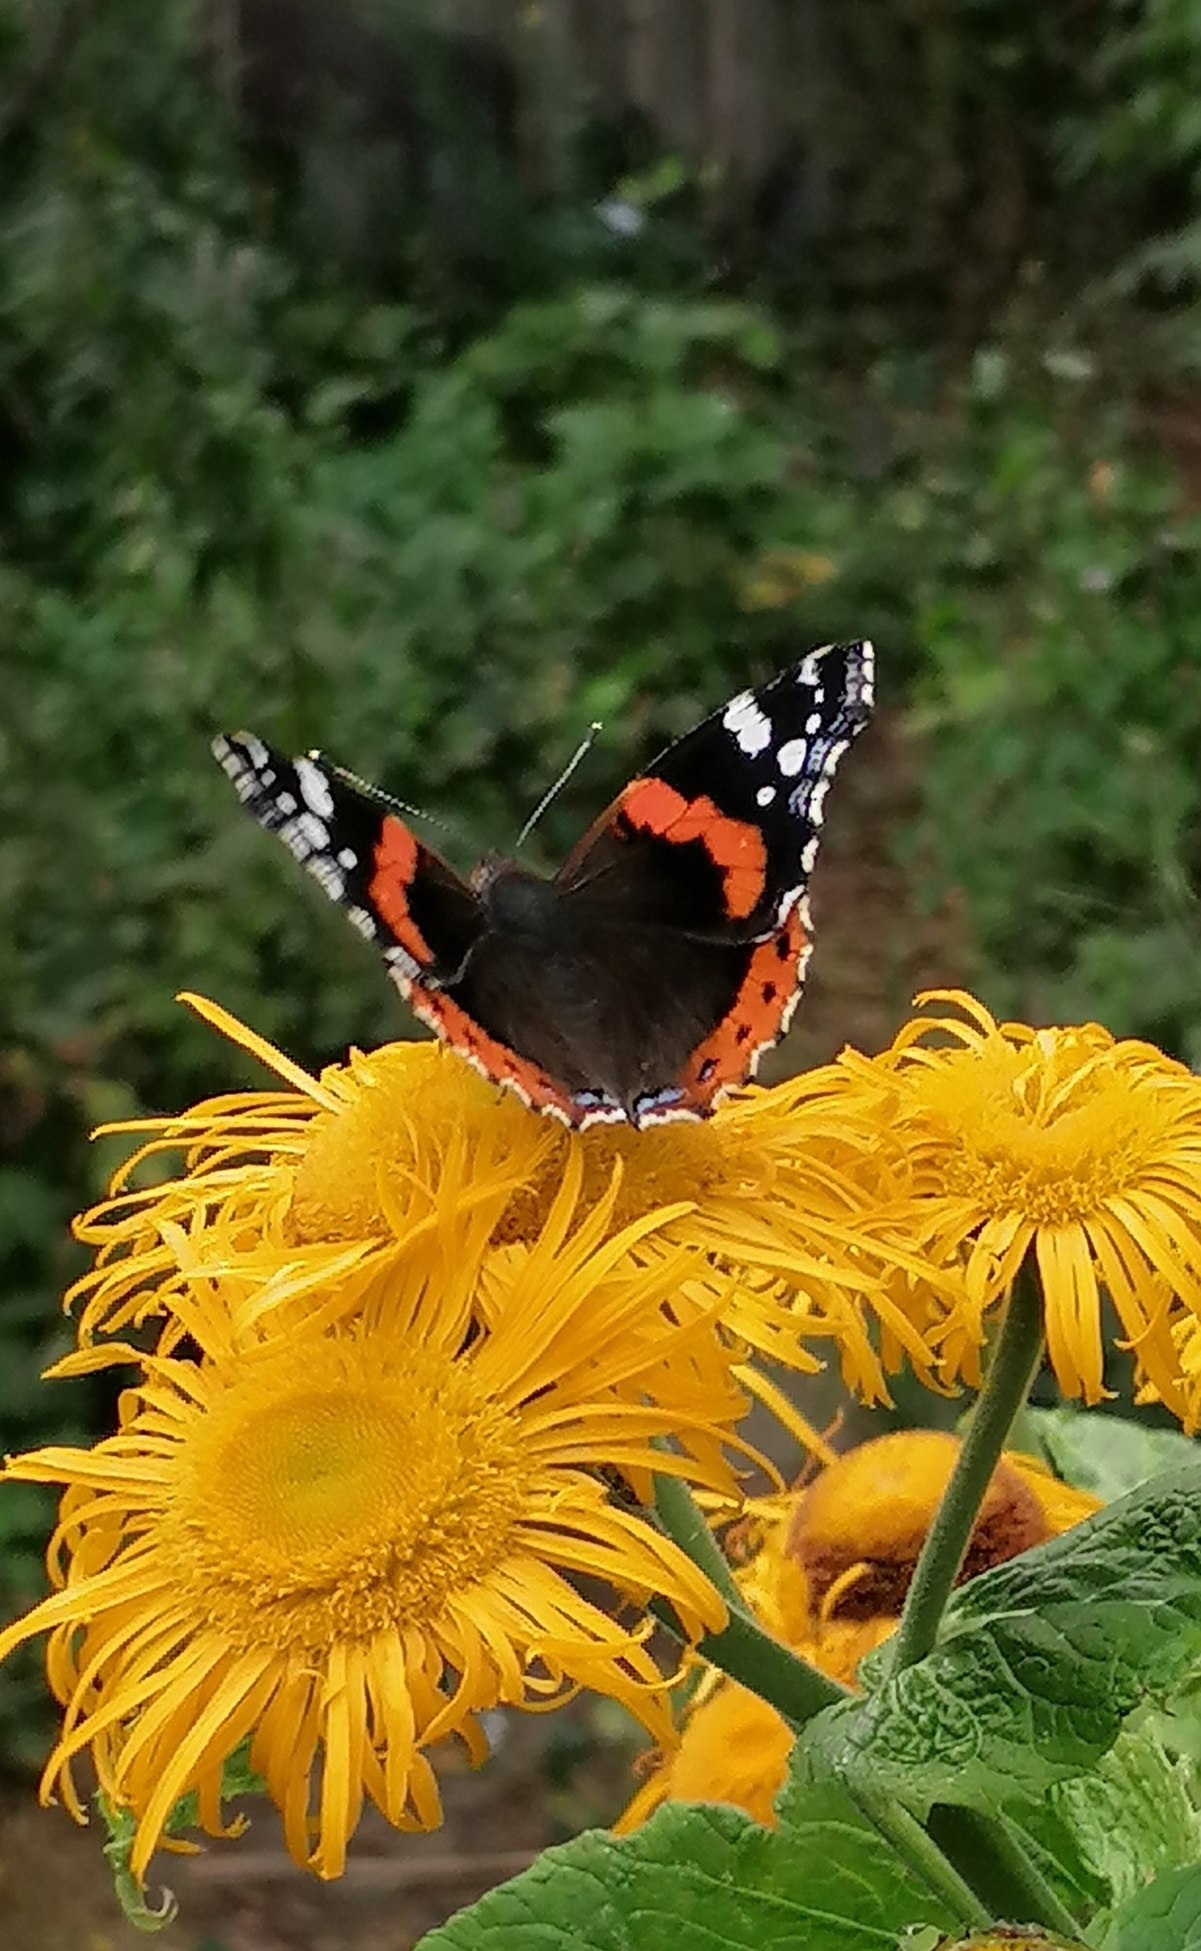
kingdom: Animalia
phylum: Arthropoda
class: Insecta
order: Lepidoptera
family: Nymphalidae
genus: Vanessa
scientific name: Vanessa atalanta
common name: Admiral
